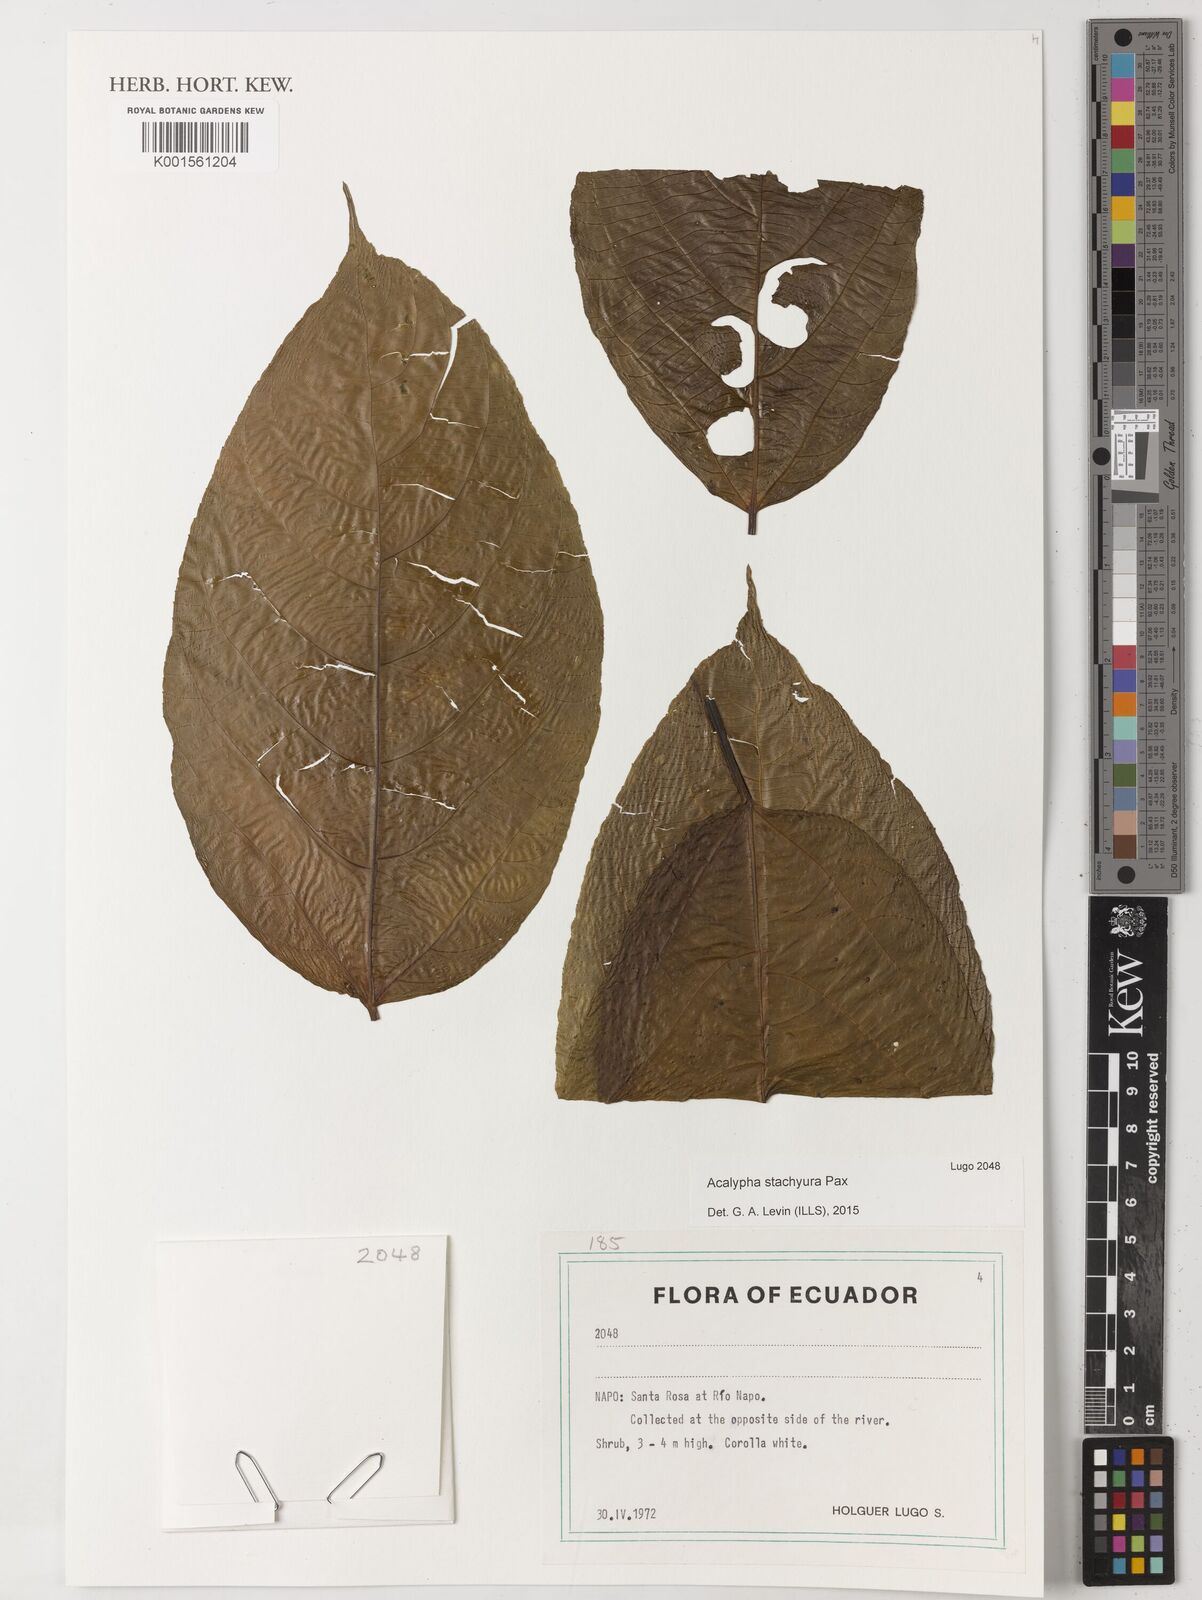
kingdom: Plantae
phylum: Tracheophyta
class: Magnoliopsida
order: Malpighiales
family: Euphorbiaceae
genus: Acalypha
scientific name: Acalypha stachyura
